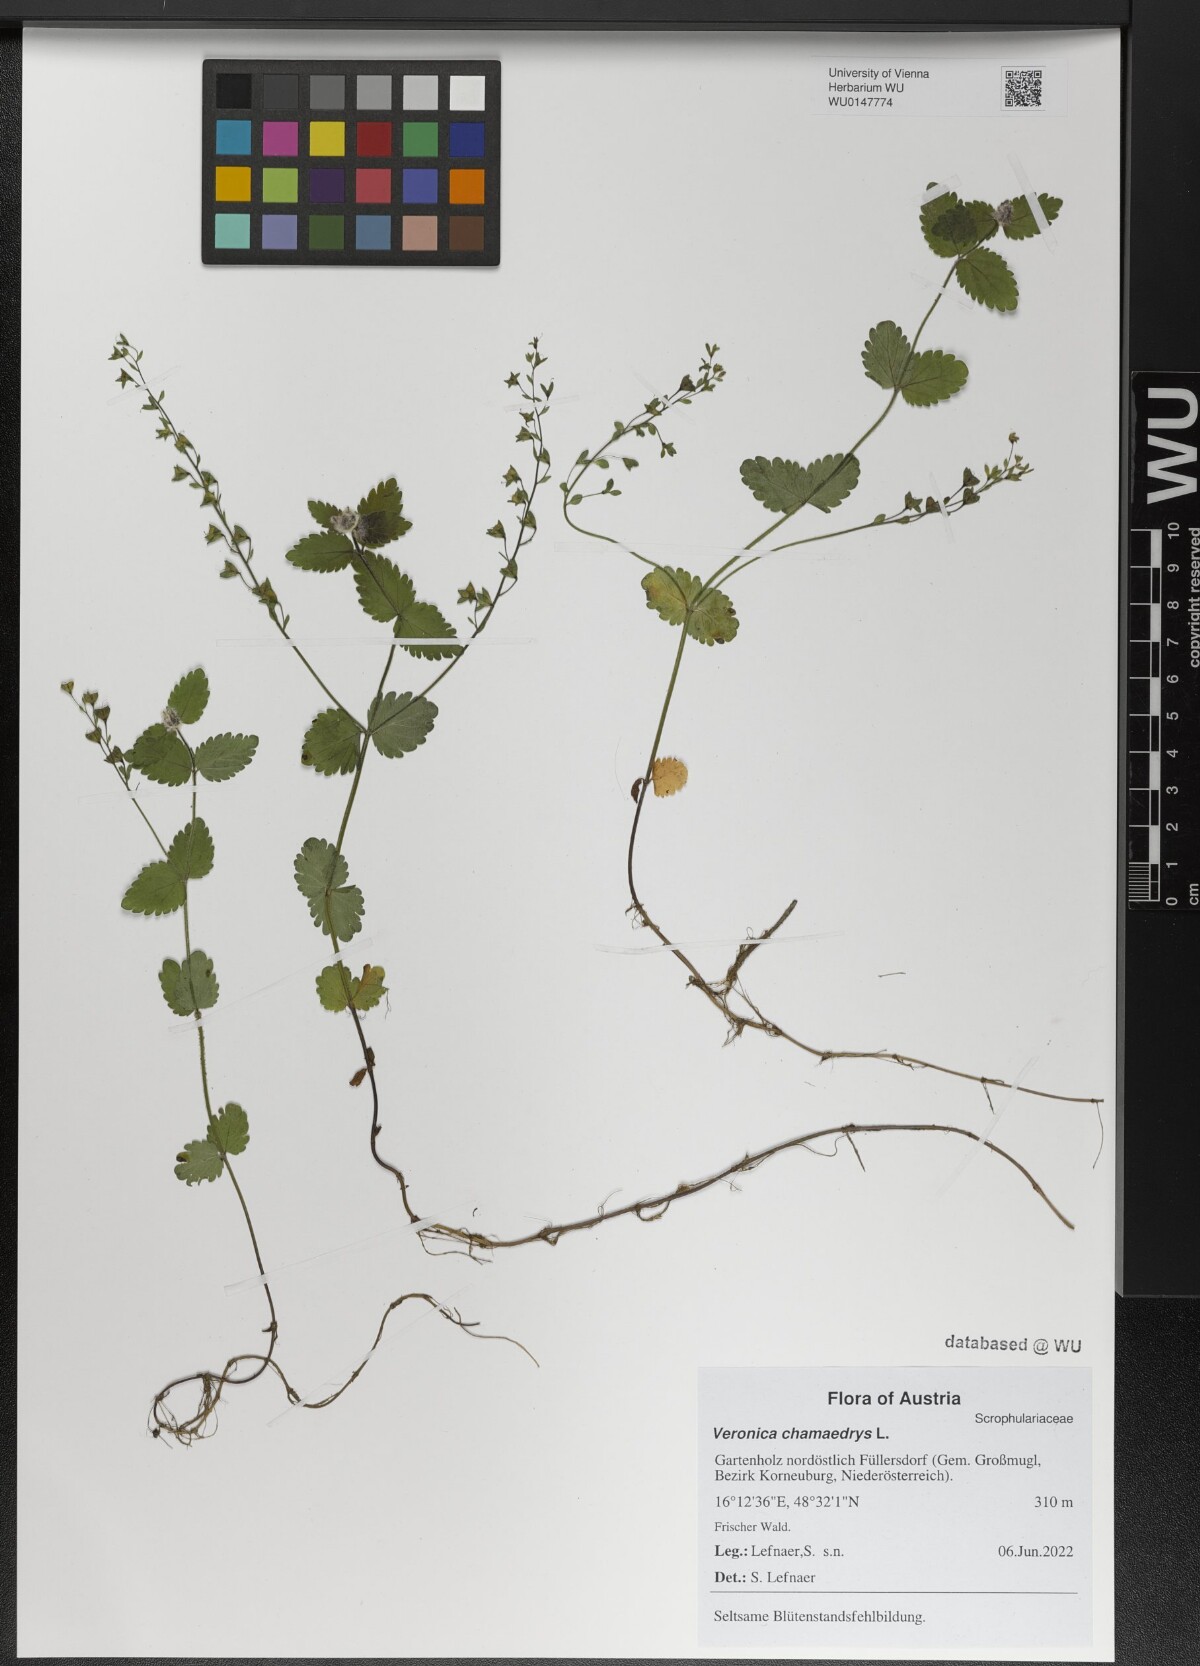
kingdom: Plantae
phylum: Tracheophyta
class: Magnoliopsida
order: Lamiales
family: Plantaginaceae
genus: Veronica
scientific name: Veronica chamaedrys
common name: Germander speedwell
